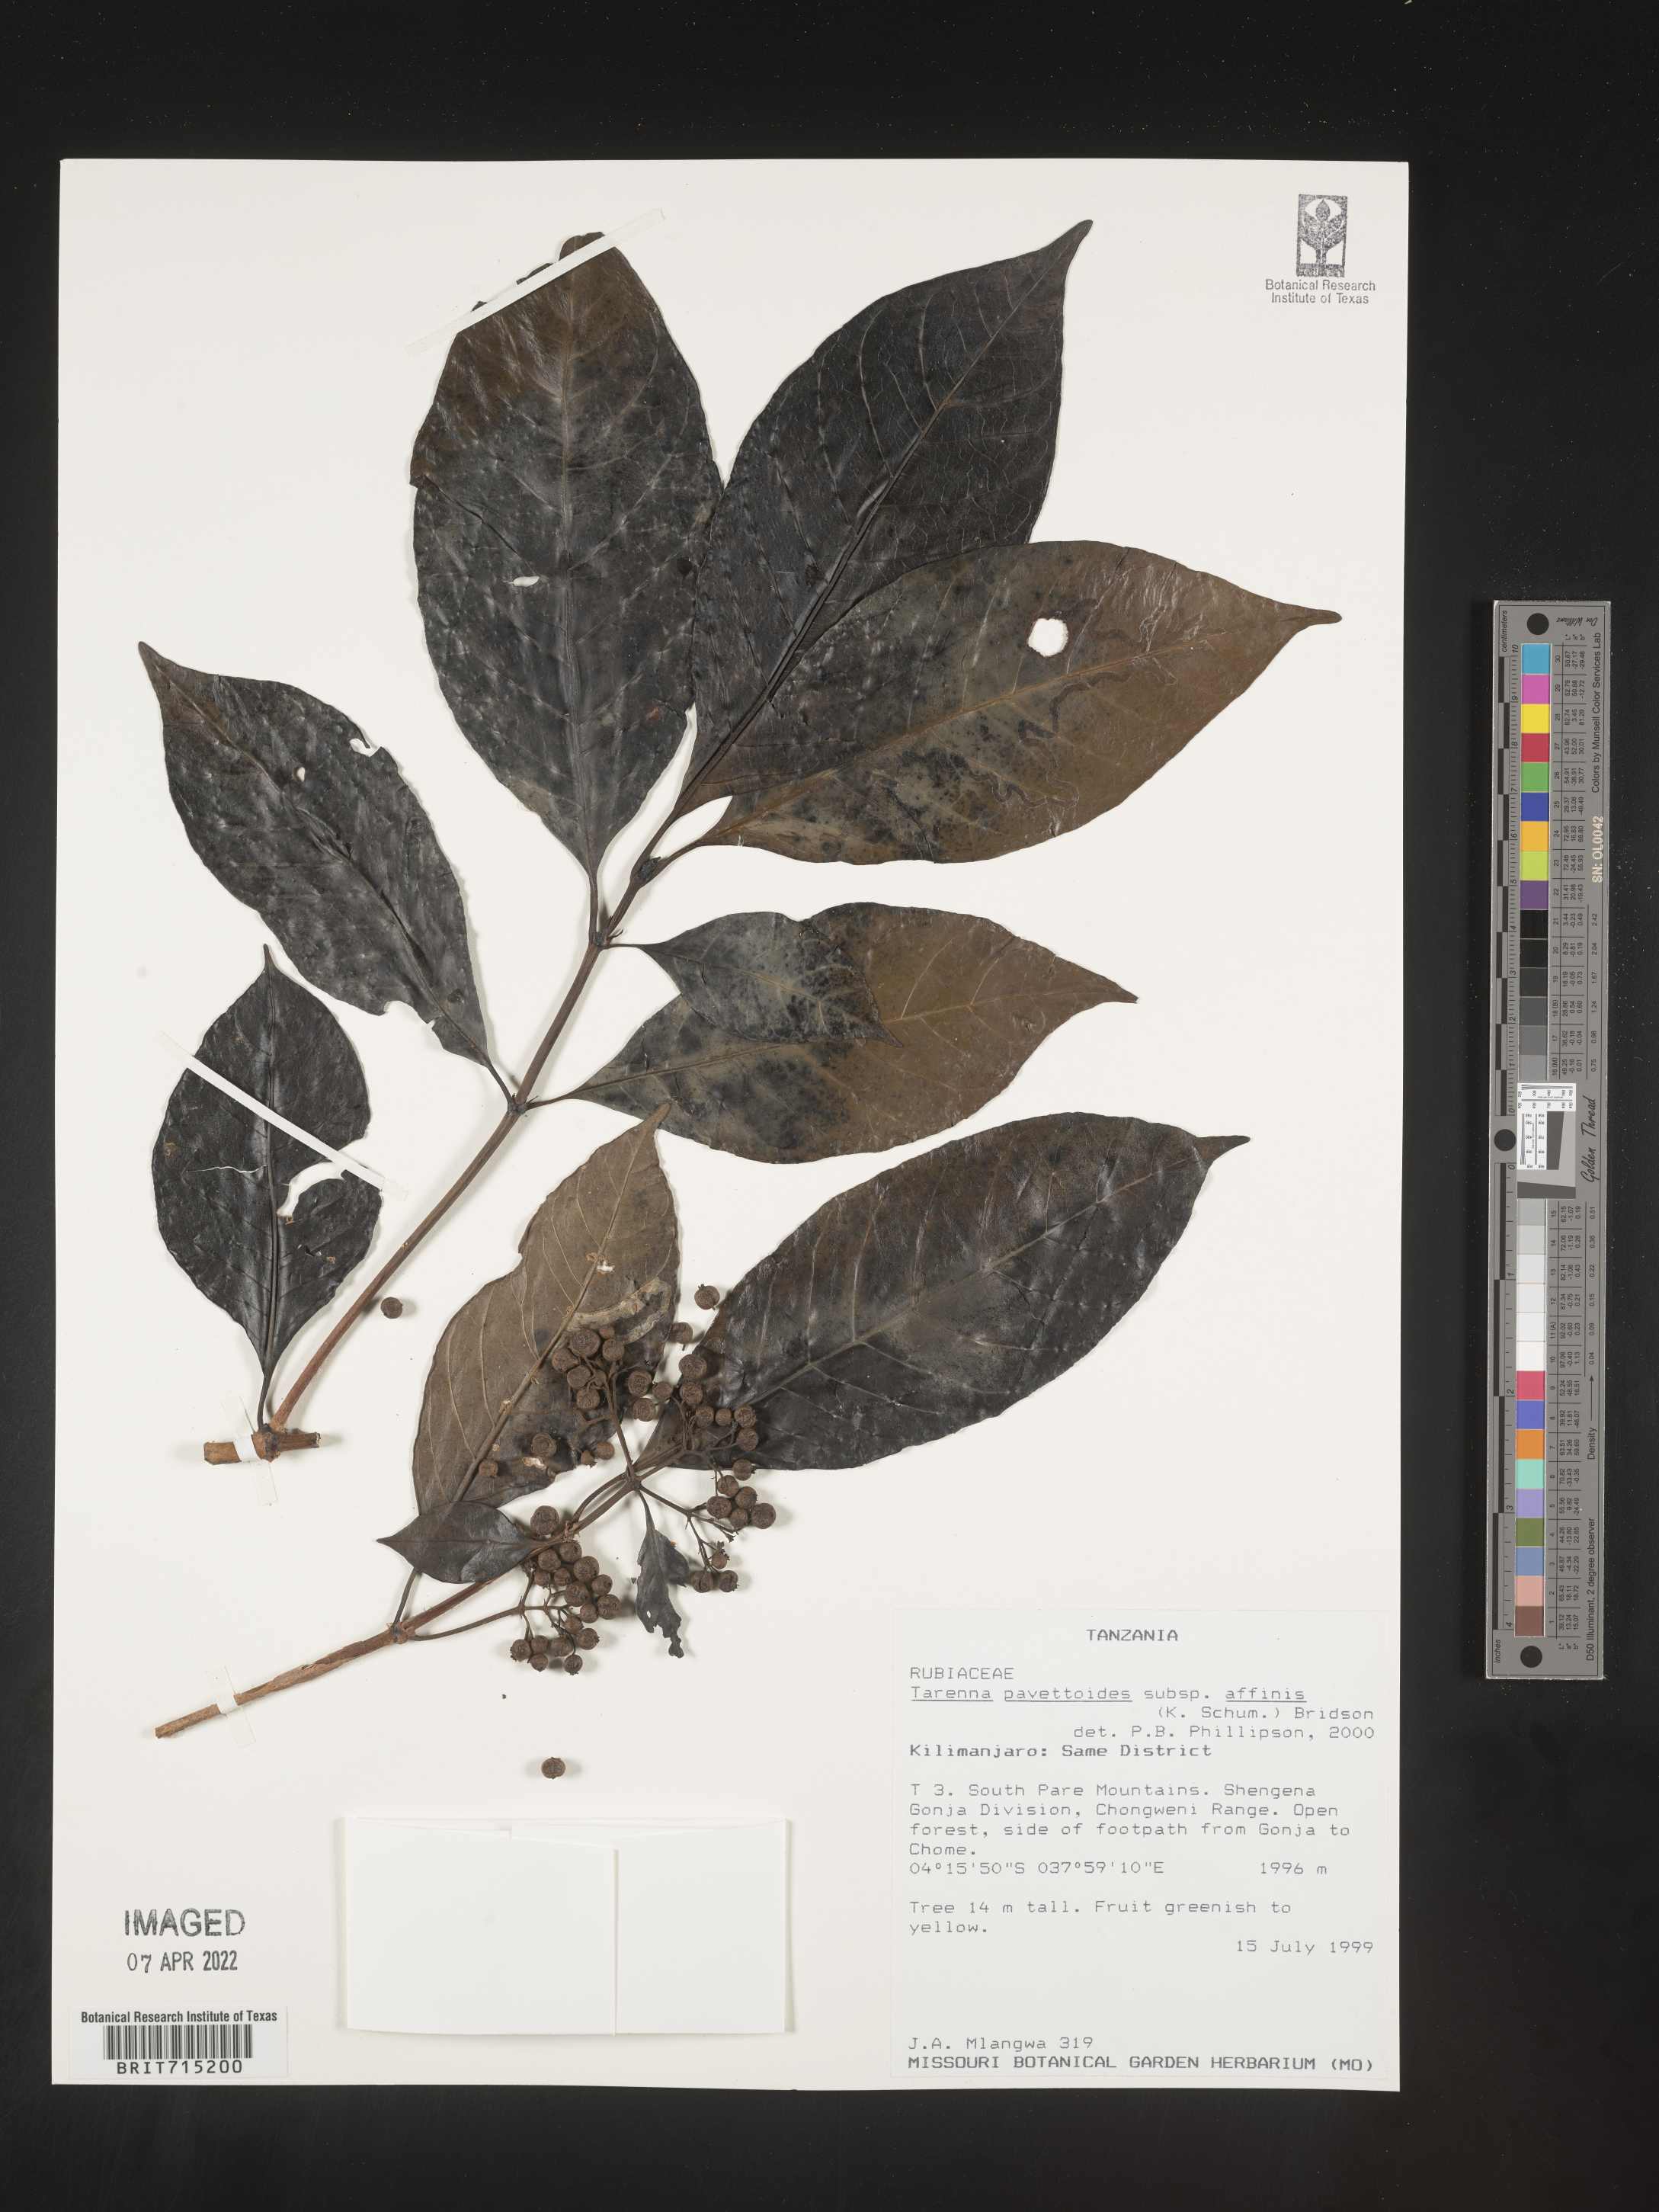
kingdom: Plantae
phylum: Tracheophyta
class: Magnoliopsida
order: Gentianales
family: Rubiaceae
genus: Tarenna
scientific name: Tarenna
